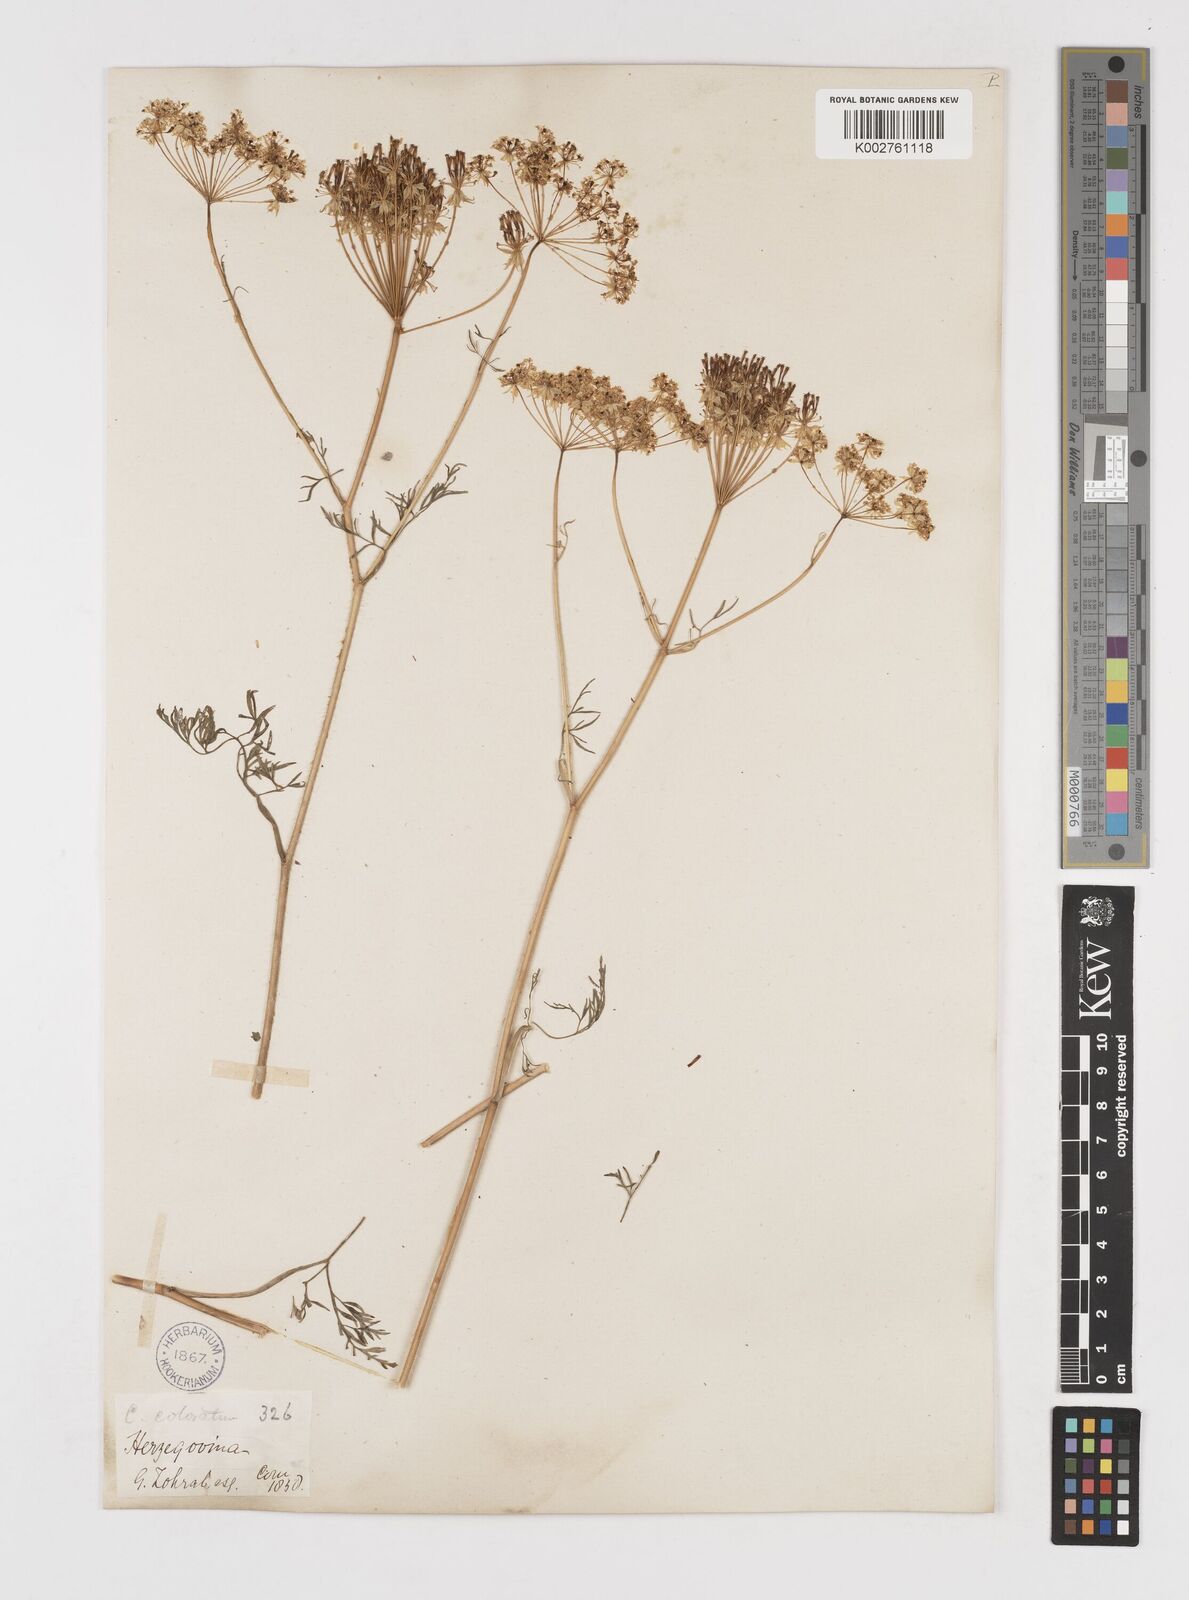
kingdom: Plantae
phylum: Tracheophyta
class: Magnoliopsida
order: Apiales
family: Apiaceae
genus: Chaerophyllum
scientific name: Chaerophyllum coloratum
